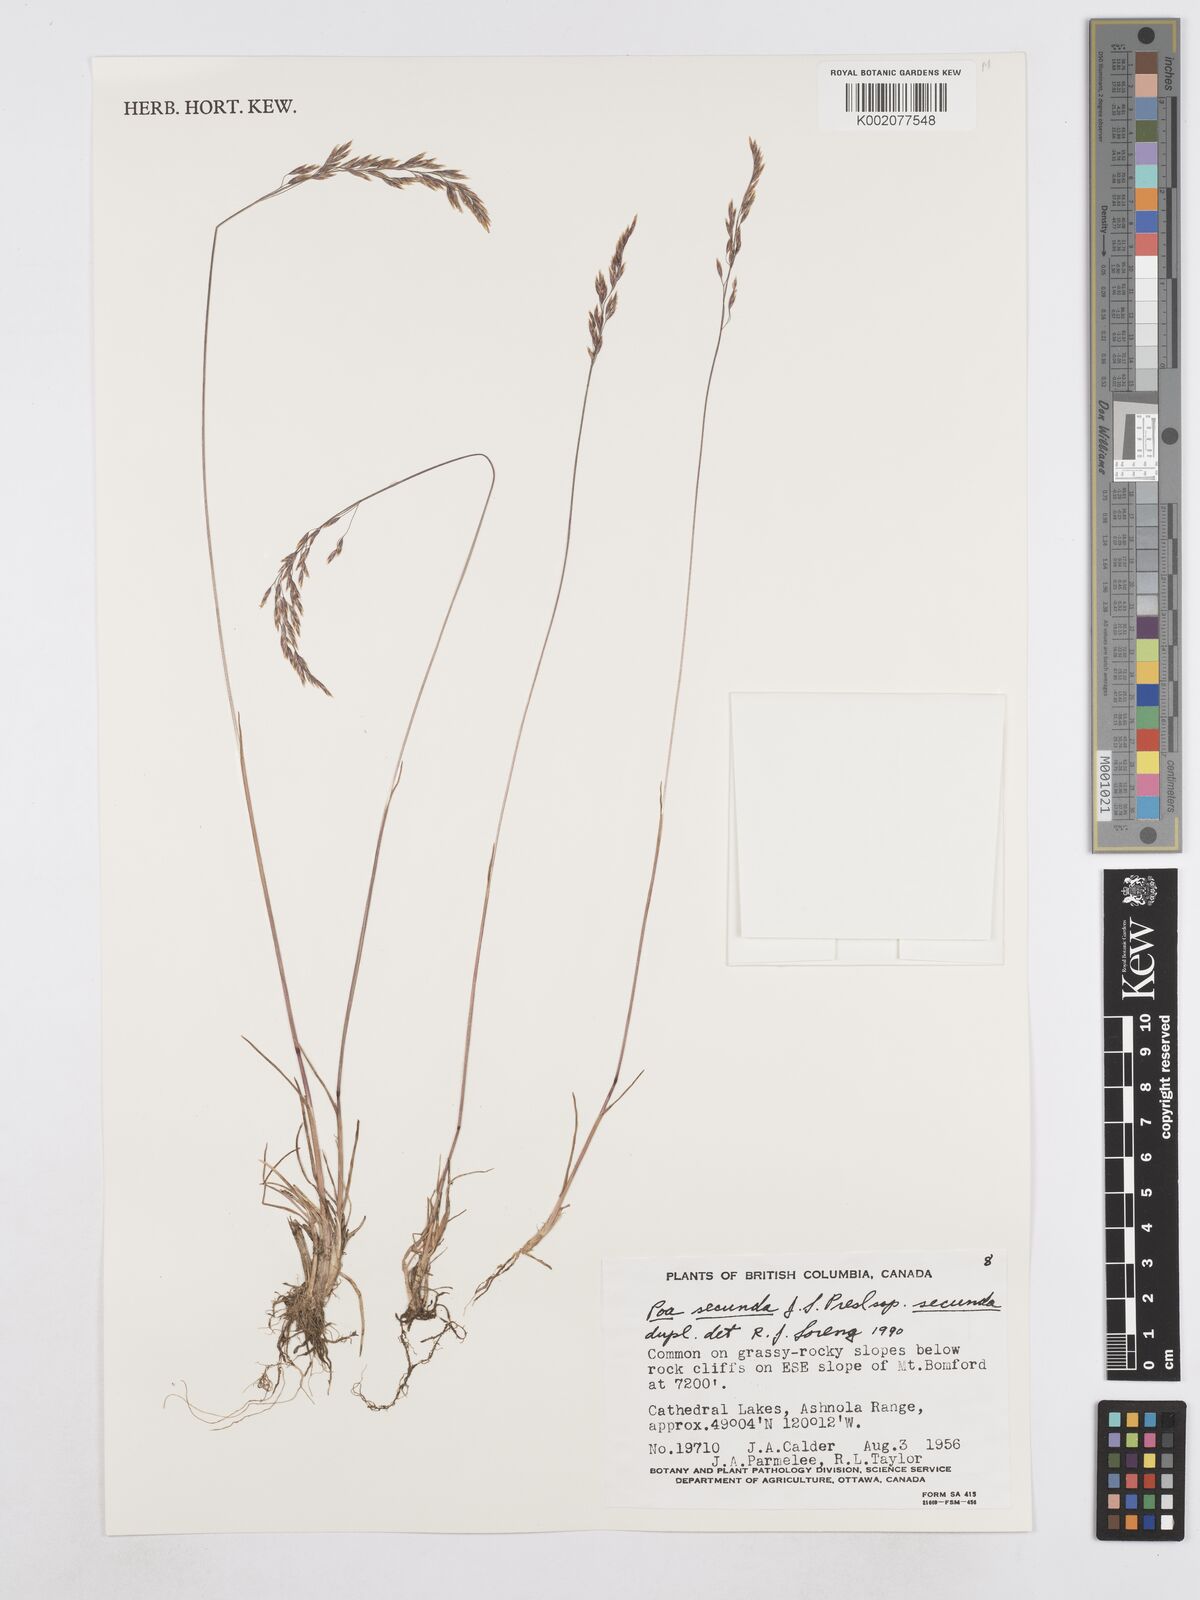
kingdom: Plantae
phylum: Tracheophyta
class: Liliopsida
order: Poales
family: Poaceae
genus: Poa
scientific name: Poa secunda
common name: Sandberg bluegrass
